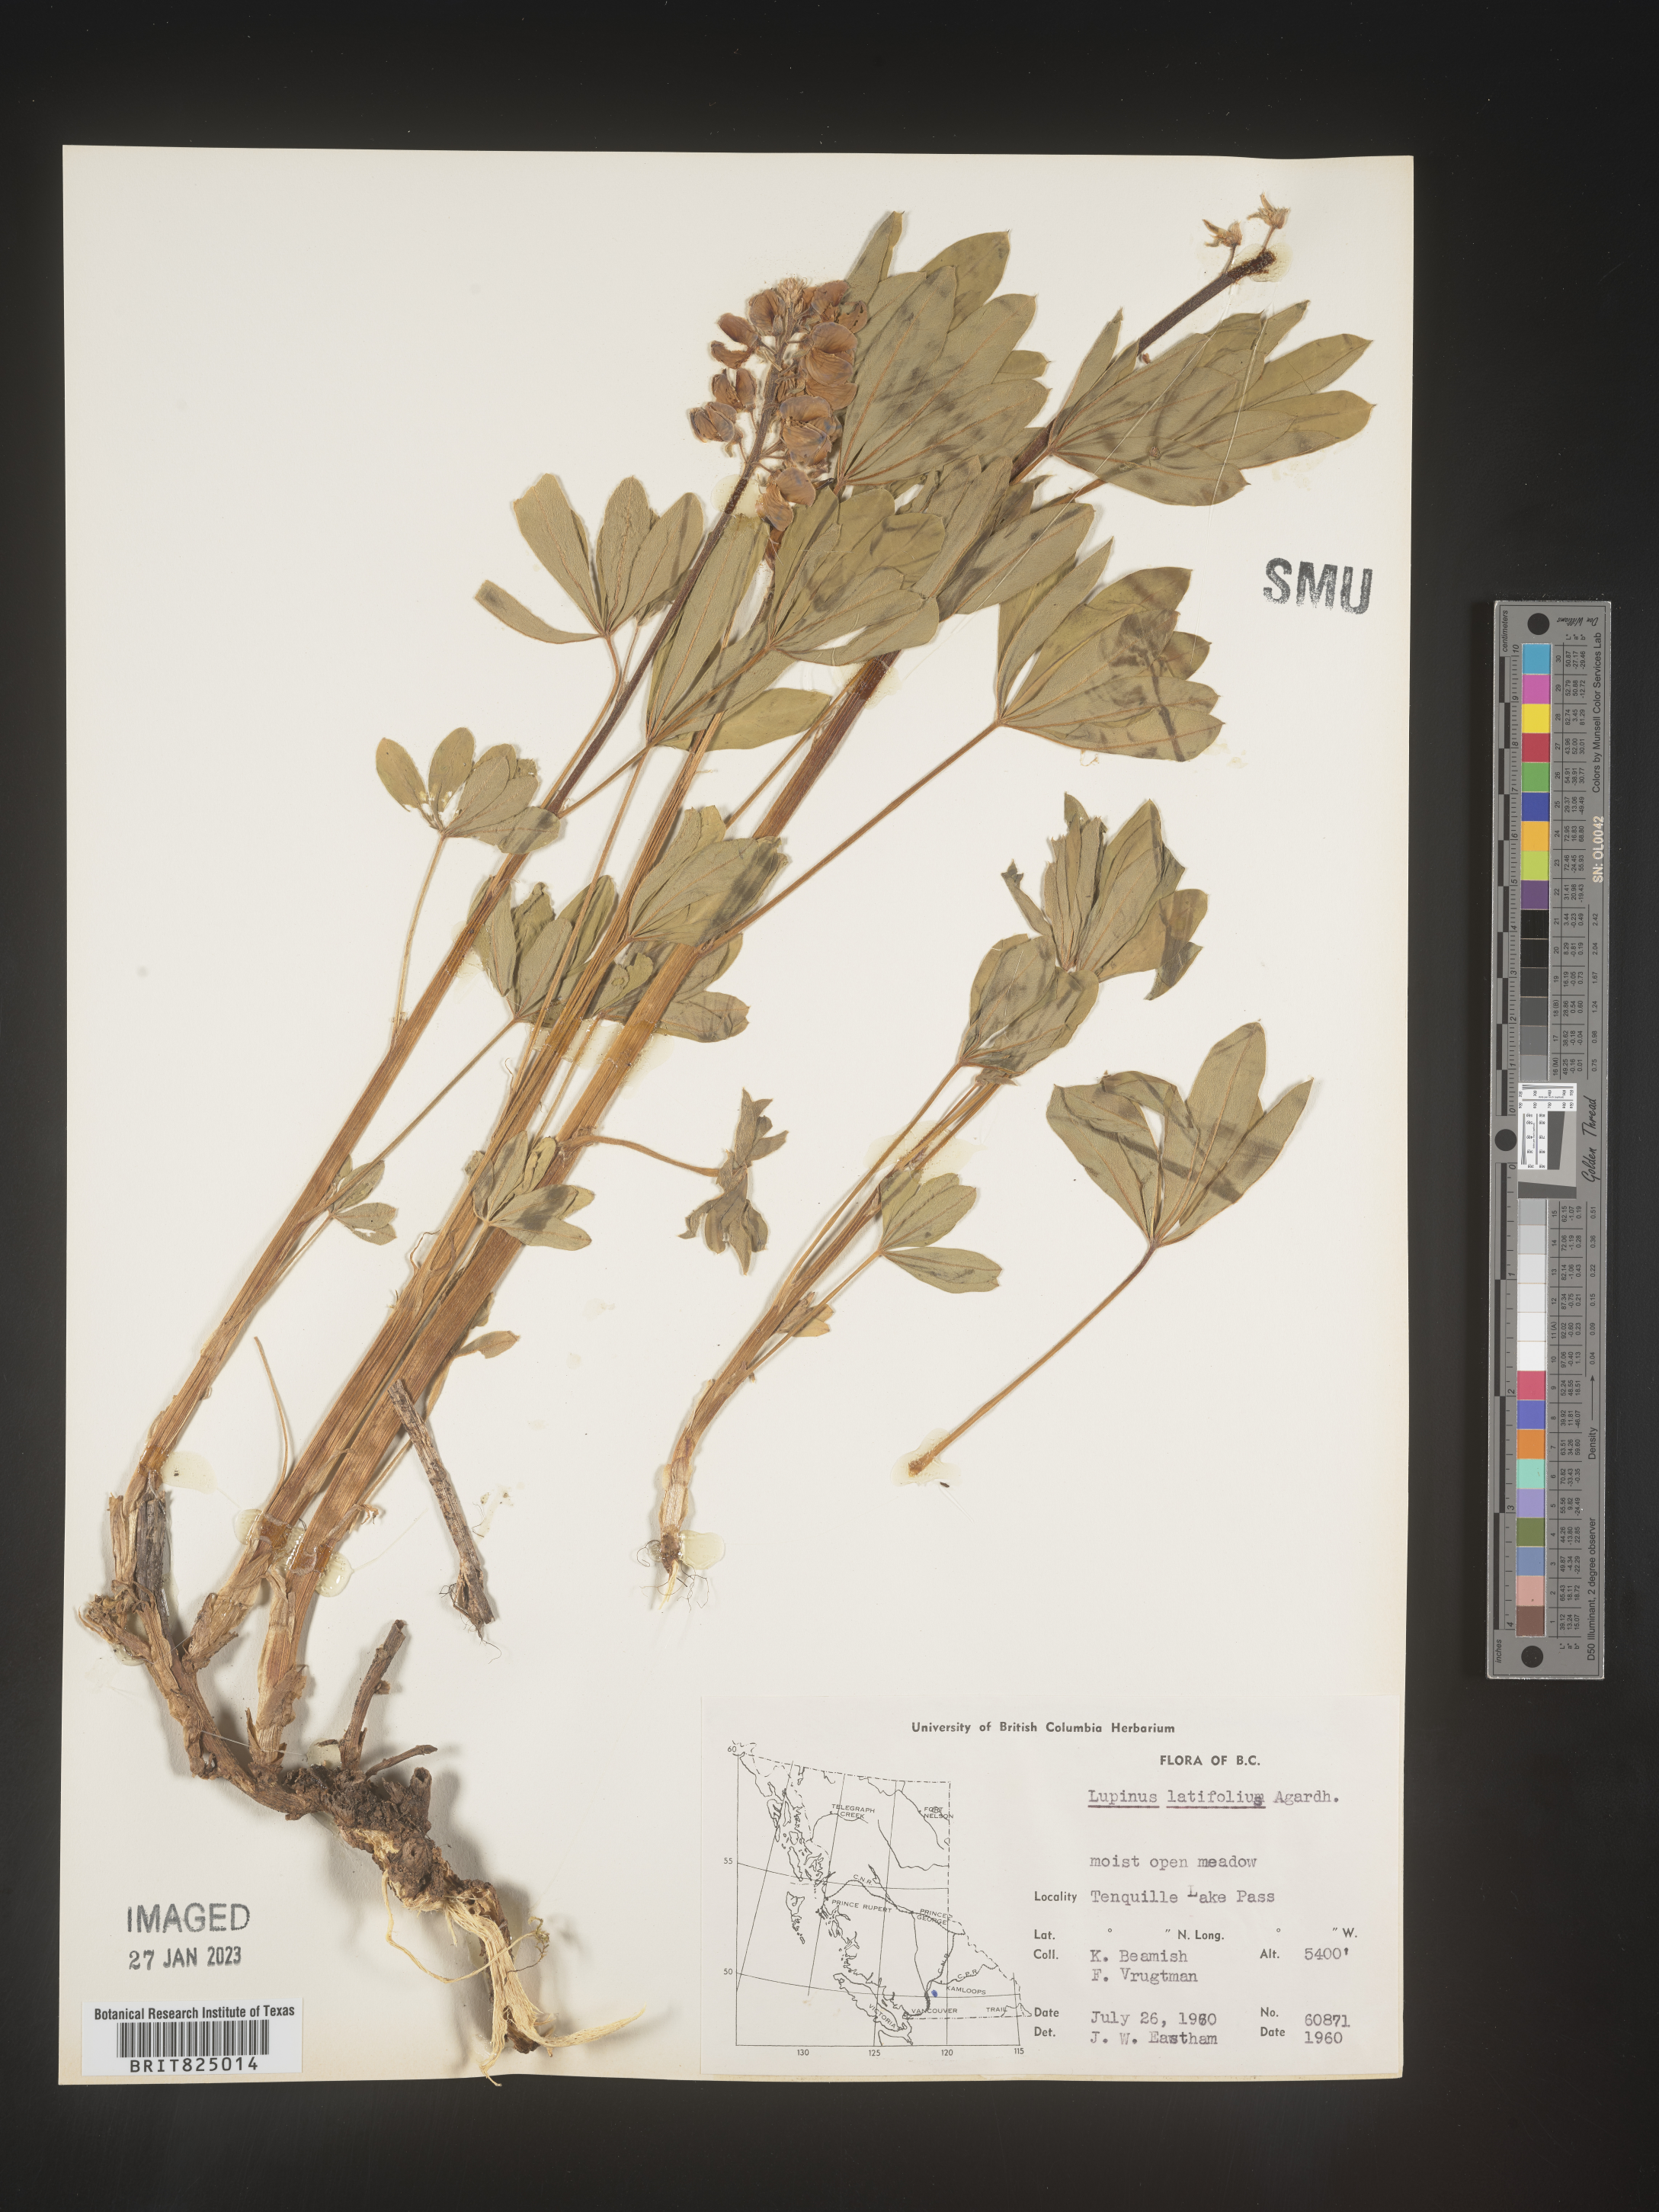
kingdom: Plantae
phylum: Tracheophyta
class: Magnoliopsida
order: Fabales
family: Fabaceae
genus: Lupinus
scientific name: Lupinus
